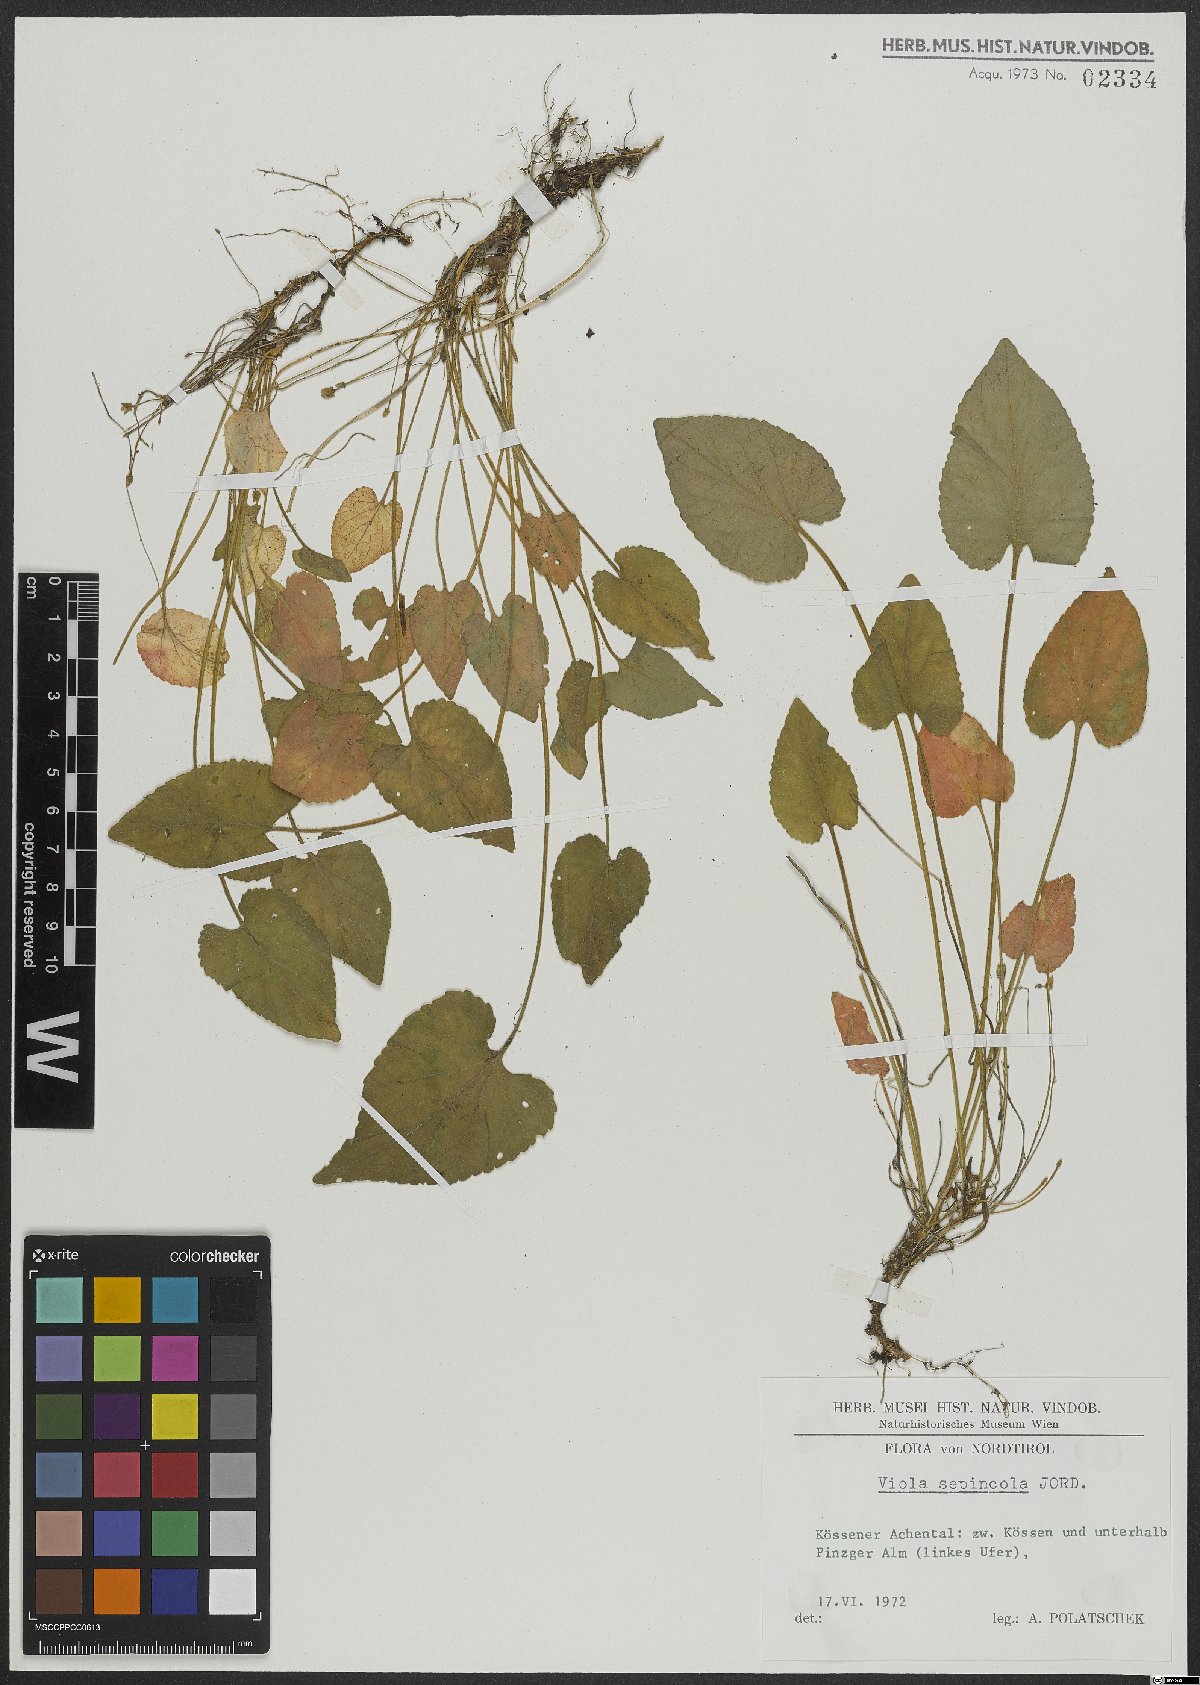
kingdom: Plantae
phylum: Tracheophyta
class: Magnoliopsida
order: Malpighiales
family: Violaceae
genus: Viola
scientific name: Viola suavis
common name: Russian violet
